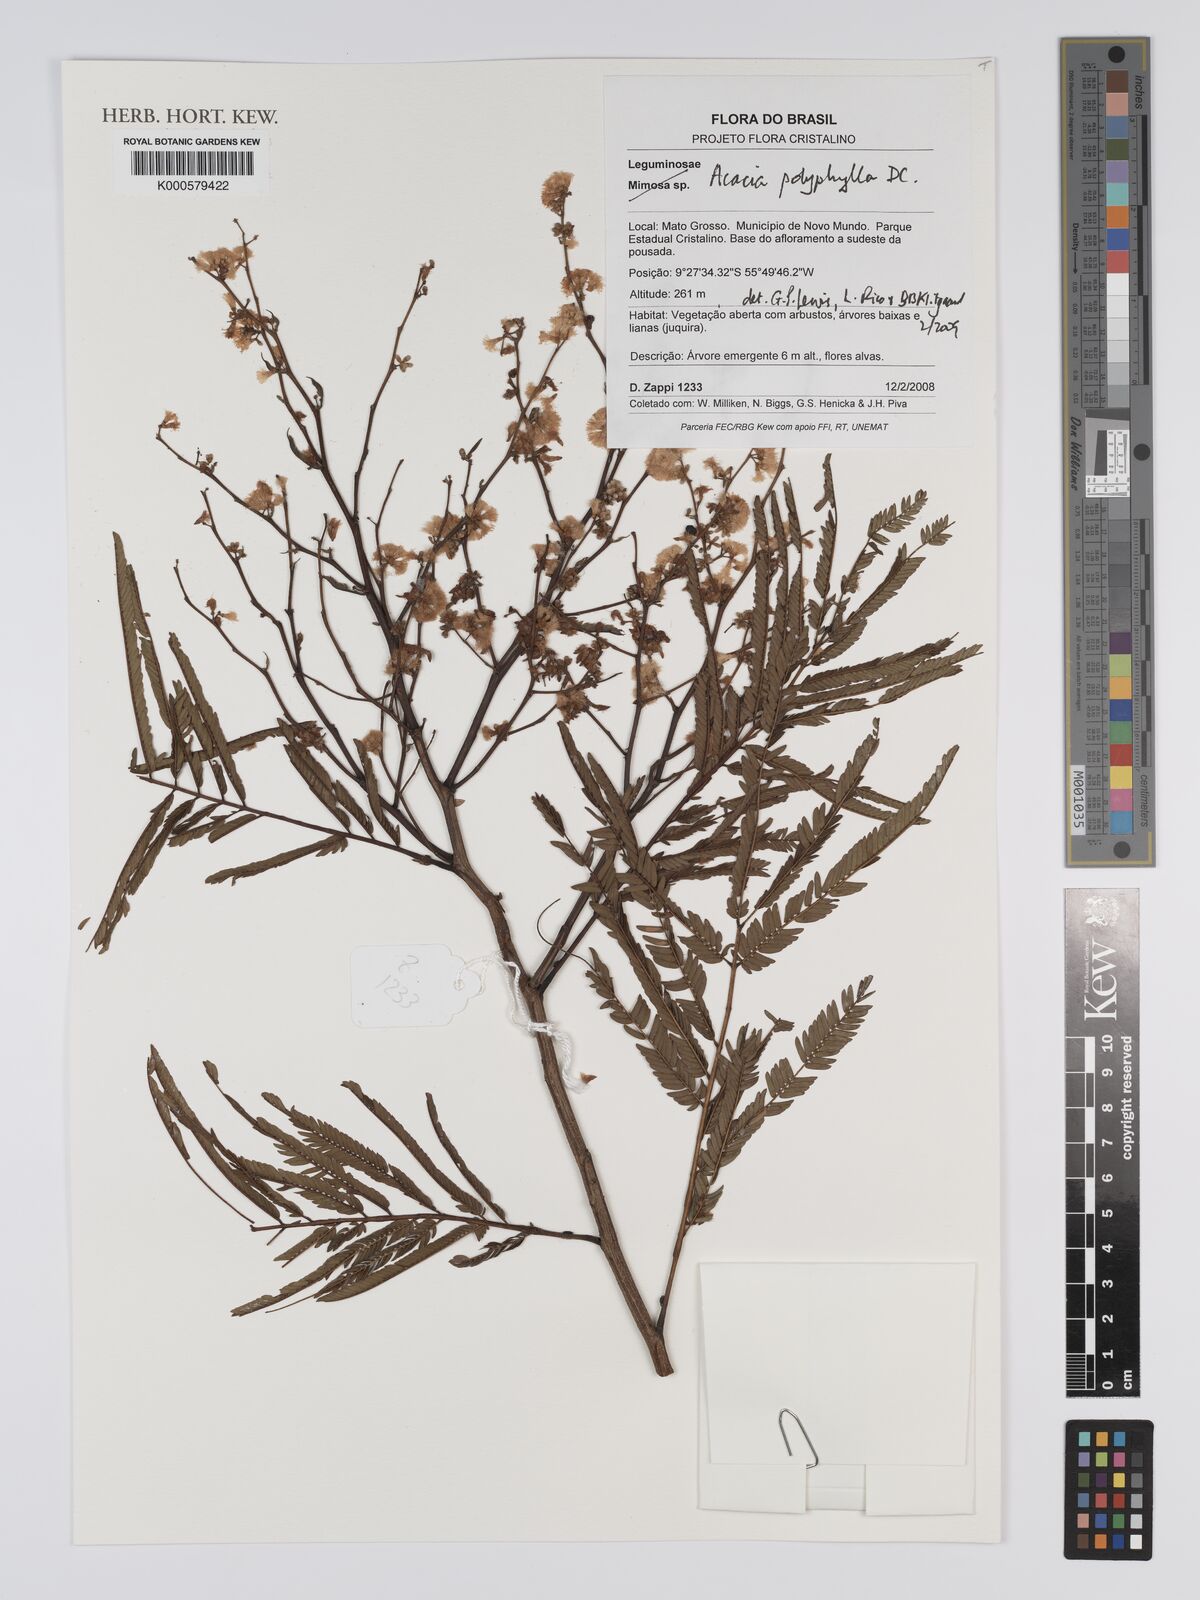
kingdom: Plantae
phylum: Tracheophyta
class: Magnoliopsida
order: Fabales
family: Fabaceae
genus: Senegalia
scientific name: Senegalia polyphylla
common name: White-tamarind
